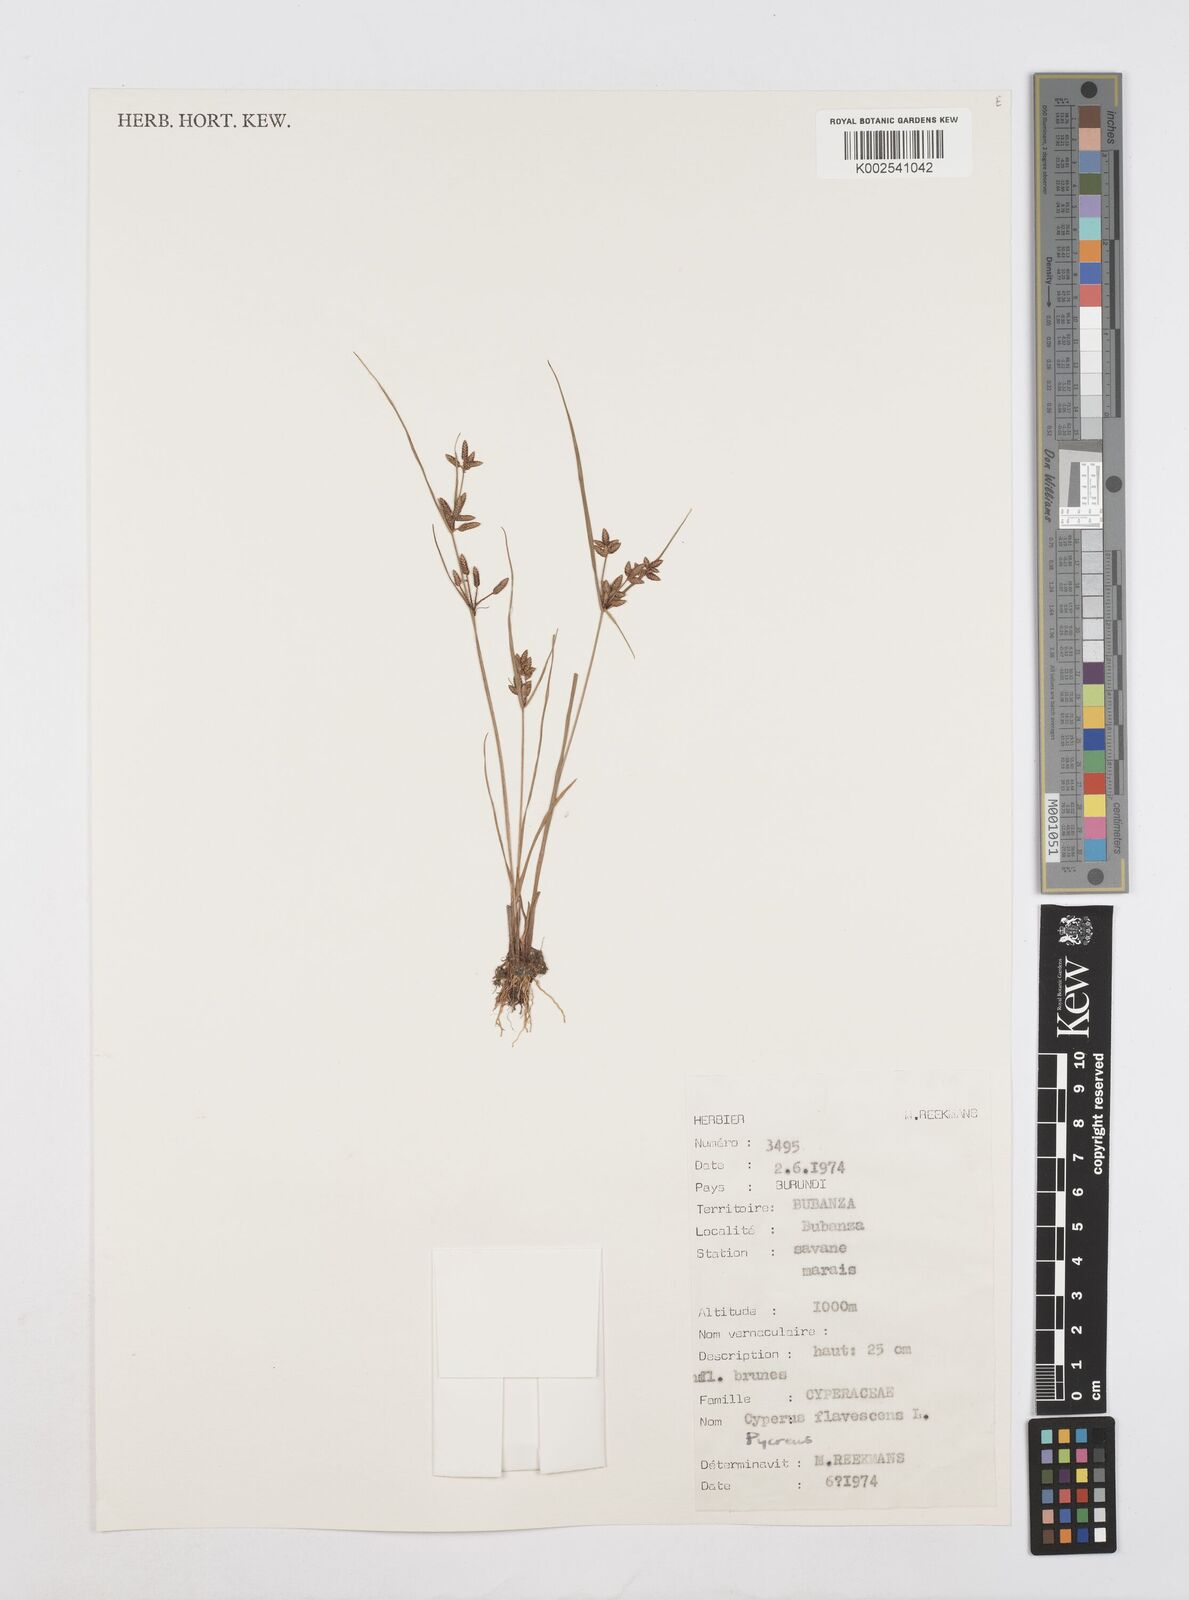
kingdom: Plantae
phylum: Tracheophyta
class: Liliopsida
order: Poales
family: Cyperaceae
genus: Cyperus
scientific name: Cyperus
